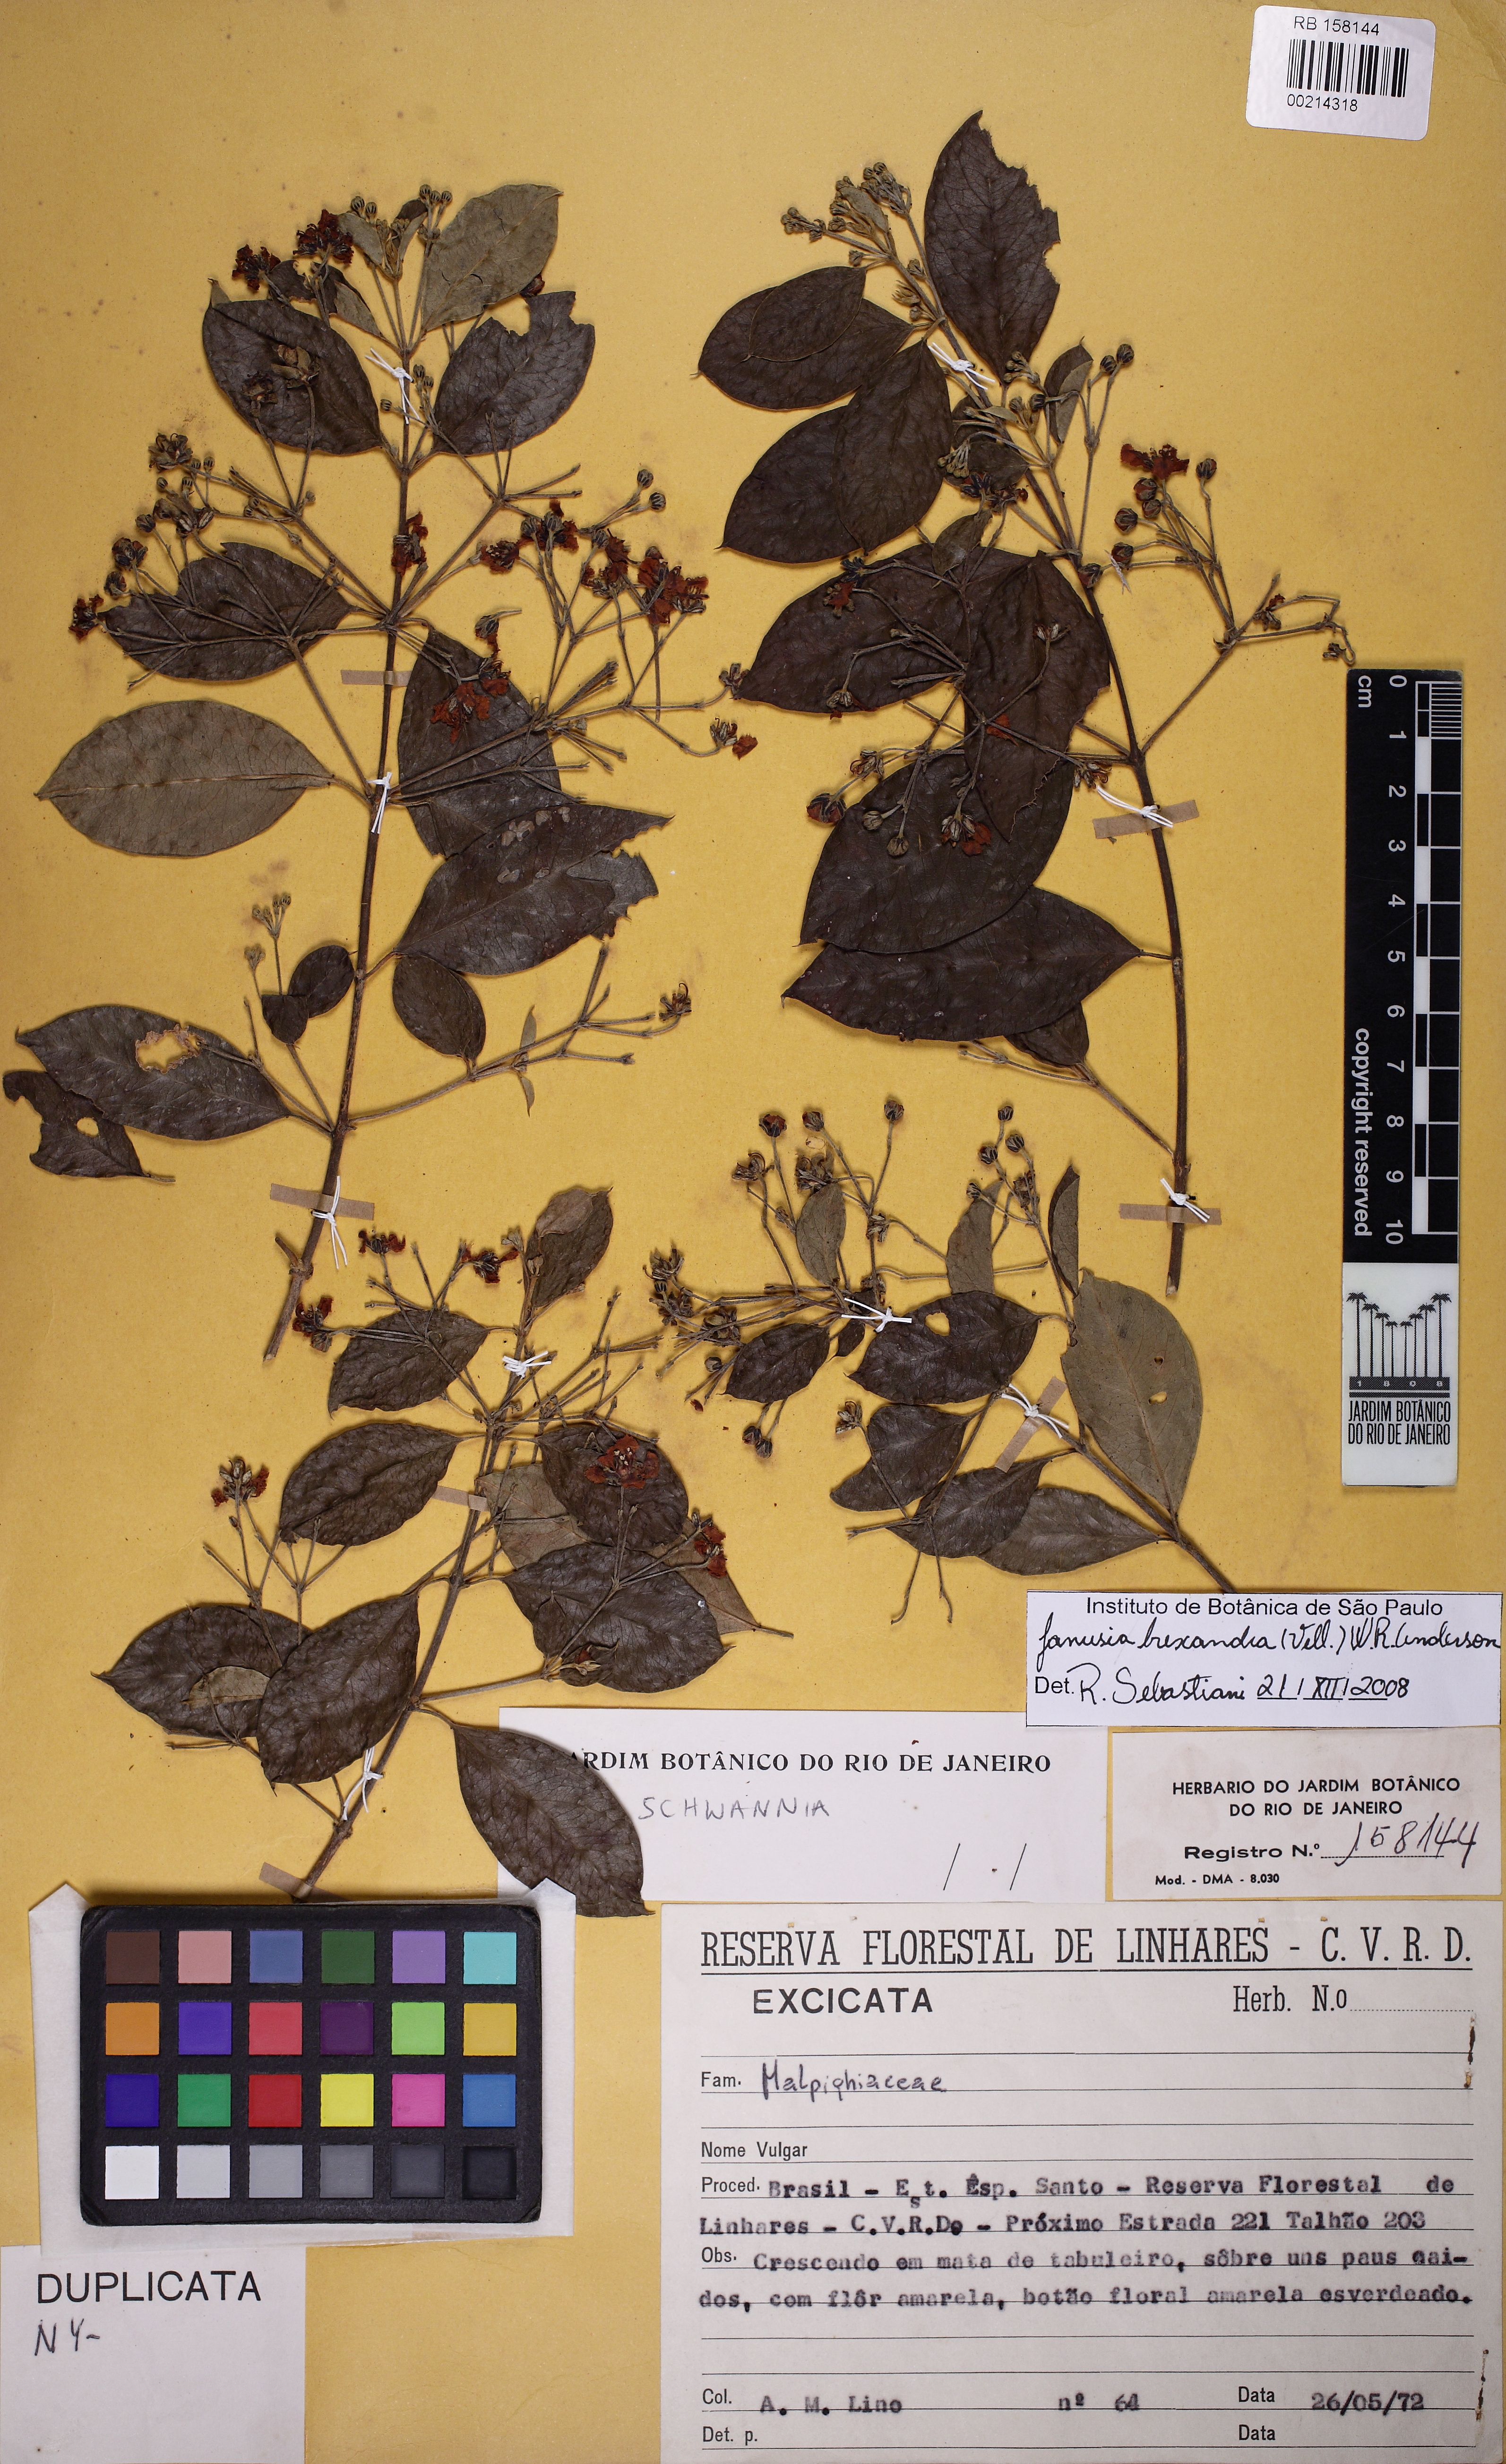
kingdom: Plantae
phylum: Tracheophyta
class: Magnoliopsida
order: Malpighiales
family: Malpighiaceae
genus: Janusia
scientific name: Janusia hexandra
